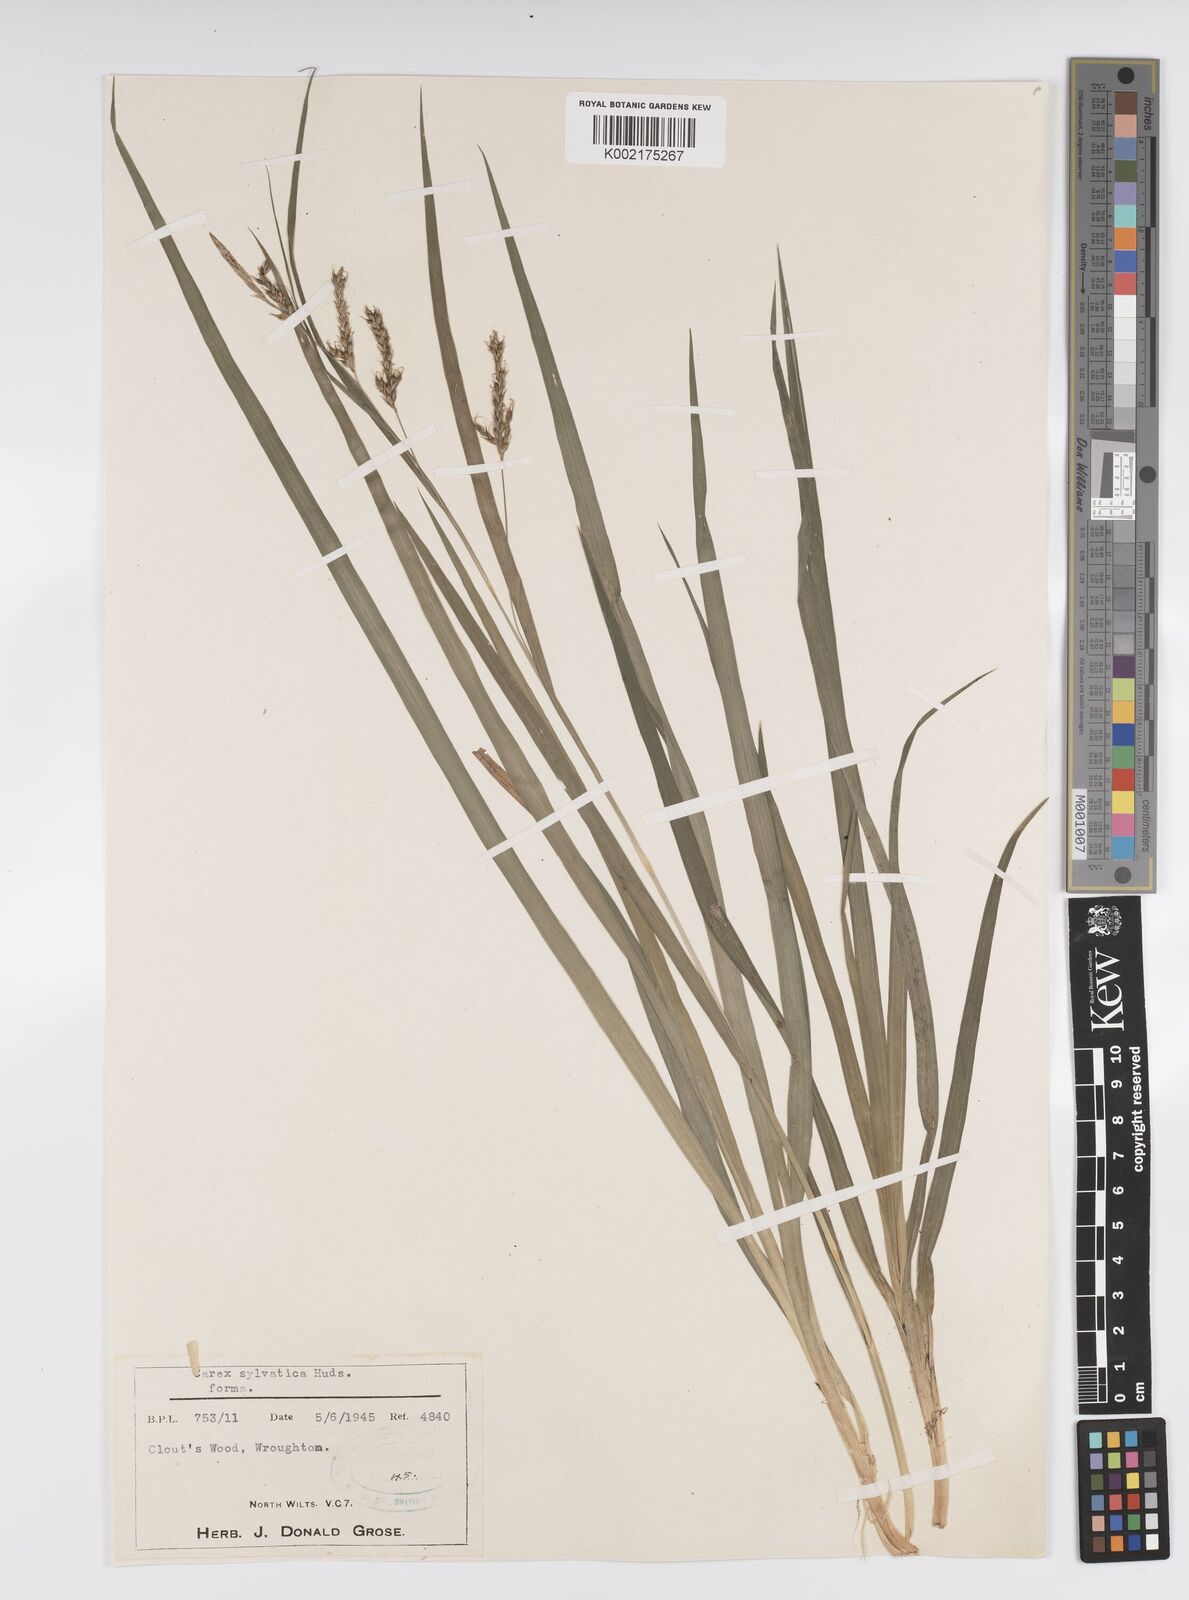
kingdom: Plantae
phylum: Tracheophyta
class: Liliopsida
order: Poales
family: Cyperaceae
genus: Carex
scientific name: Carex sylvatica
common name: Wood-sedge
